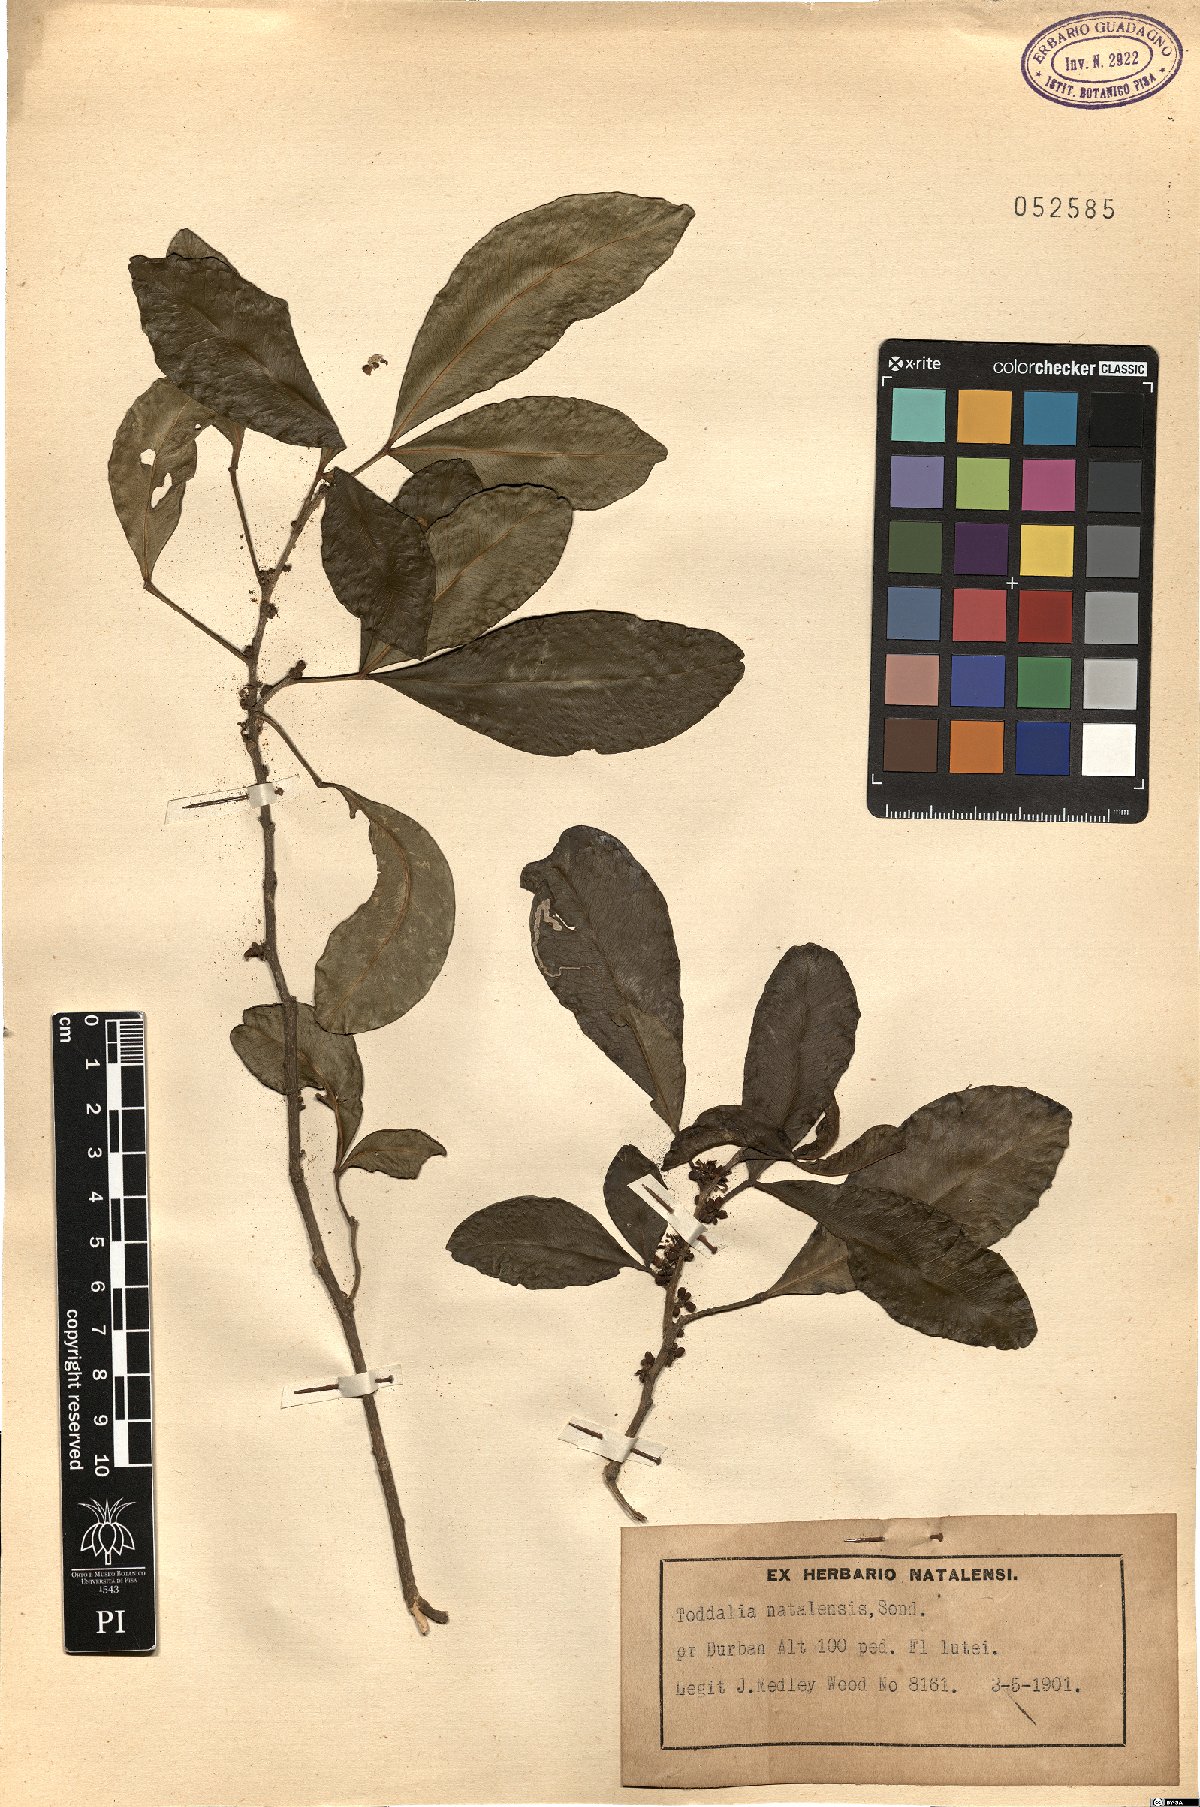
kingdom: Plantae
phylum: Tracheophyta
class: Magnoliopsida
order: Sapindales
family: Rutaceae
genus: Vepris
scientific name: Vepris natalensis
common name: Slender cherry-orange
